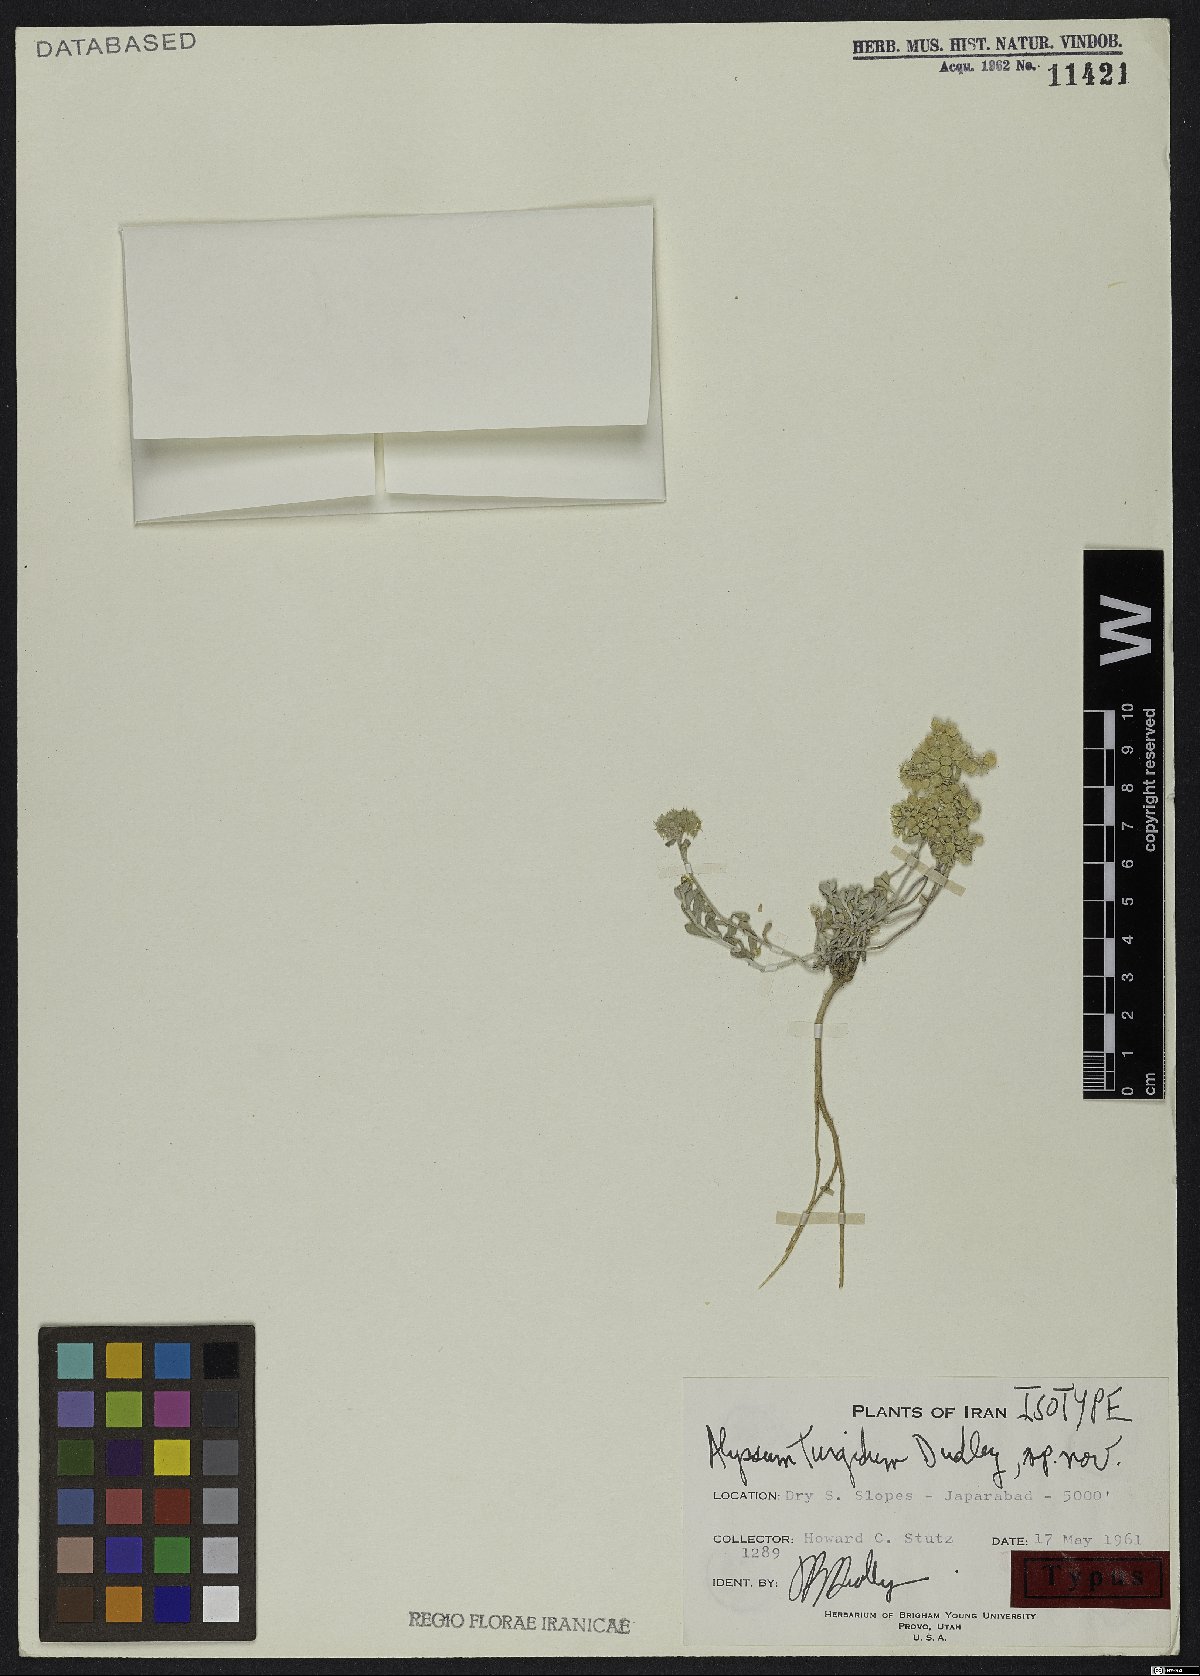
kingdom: Plantae
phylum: Tracheophyta
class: Magnoliopsida
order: Brassicales
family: Brassicaceae
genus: Odontarrhena
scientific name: Odontarrhena turgida
